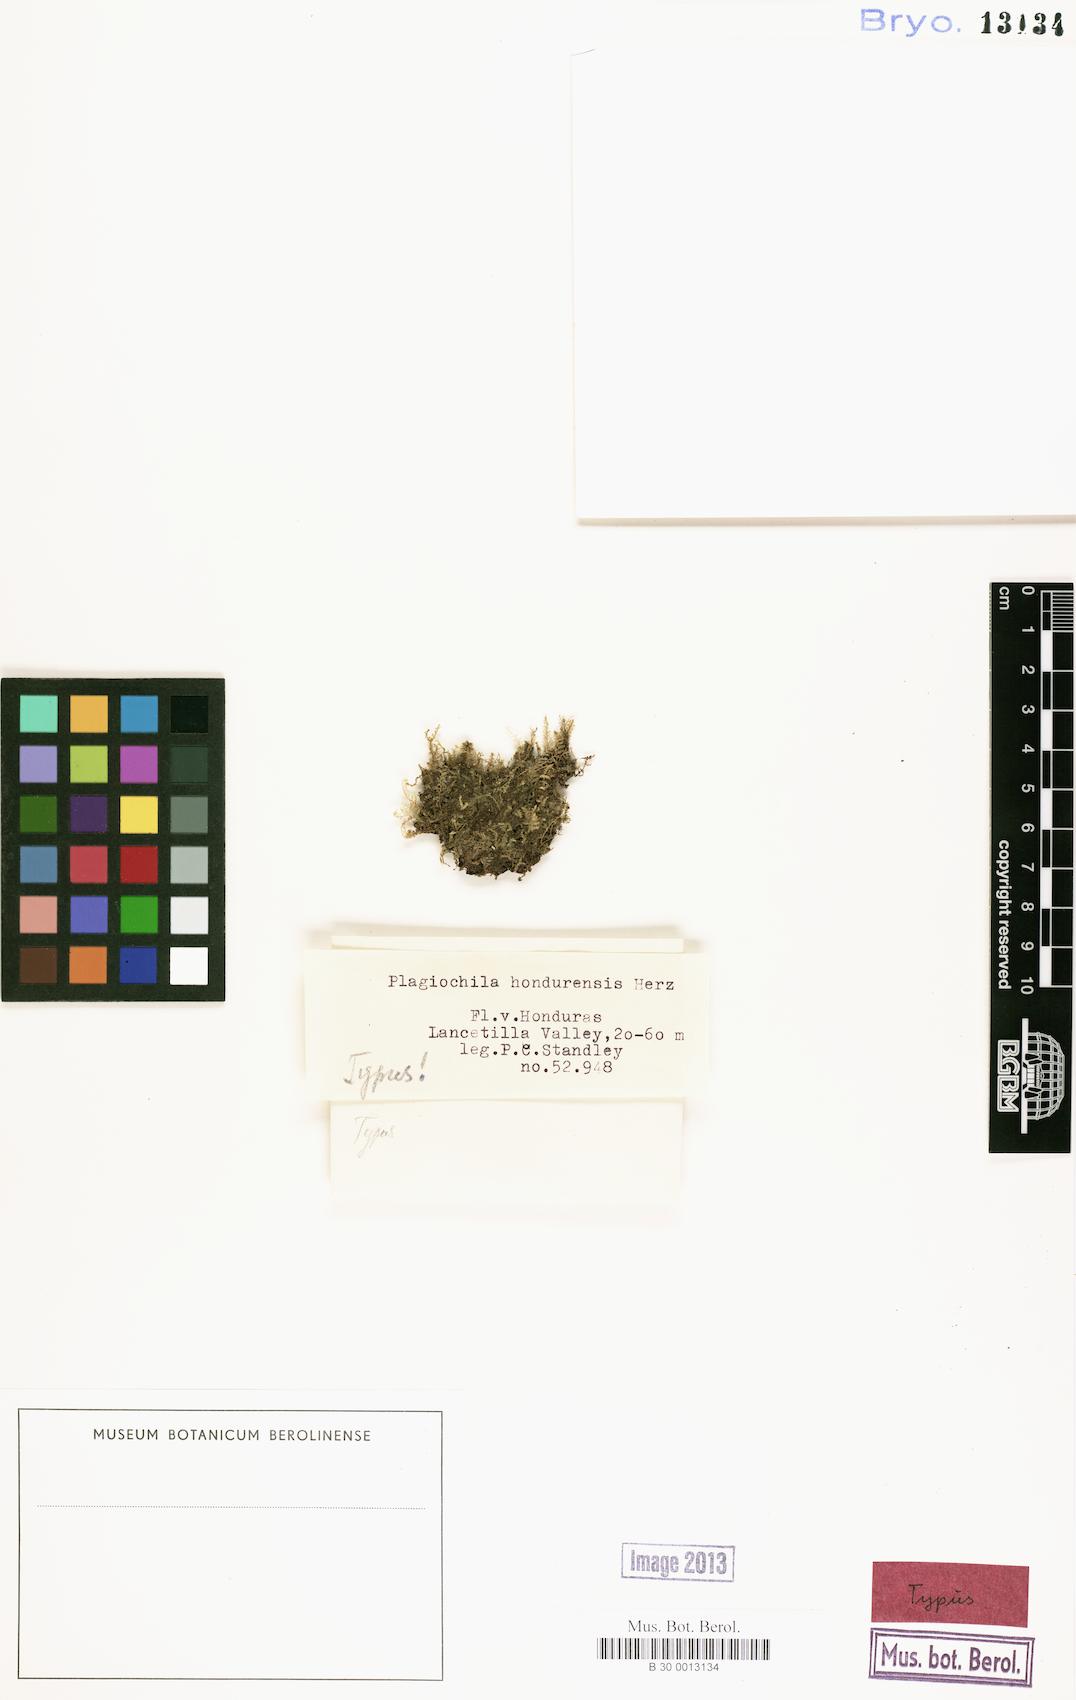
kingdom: Plantae
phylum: Marchantiophyta
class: Jungermanniopsida
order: Jungermanniales
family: Plagiochilaceae
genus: Plagiochila
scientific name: Plagiochila subplana
